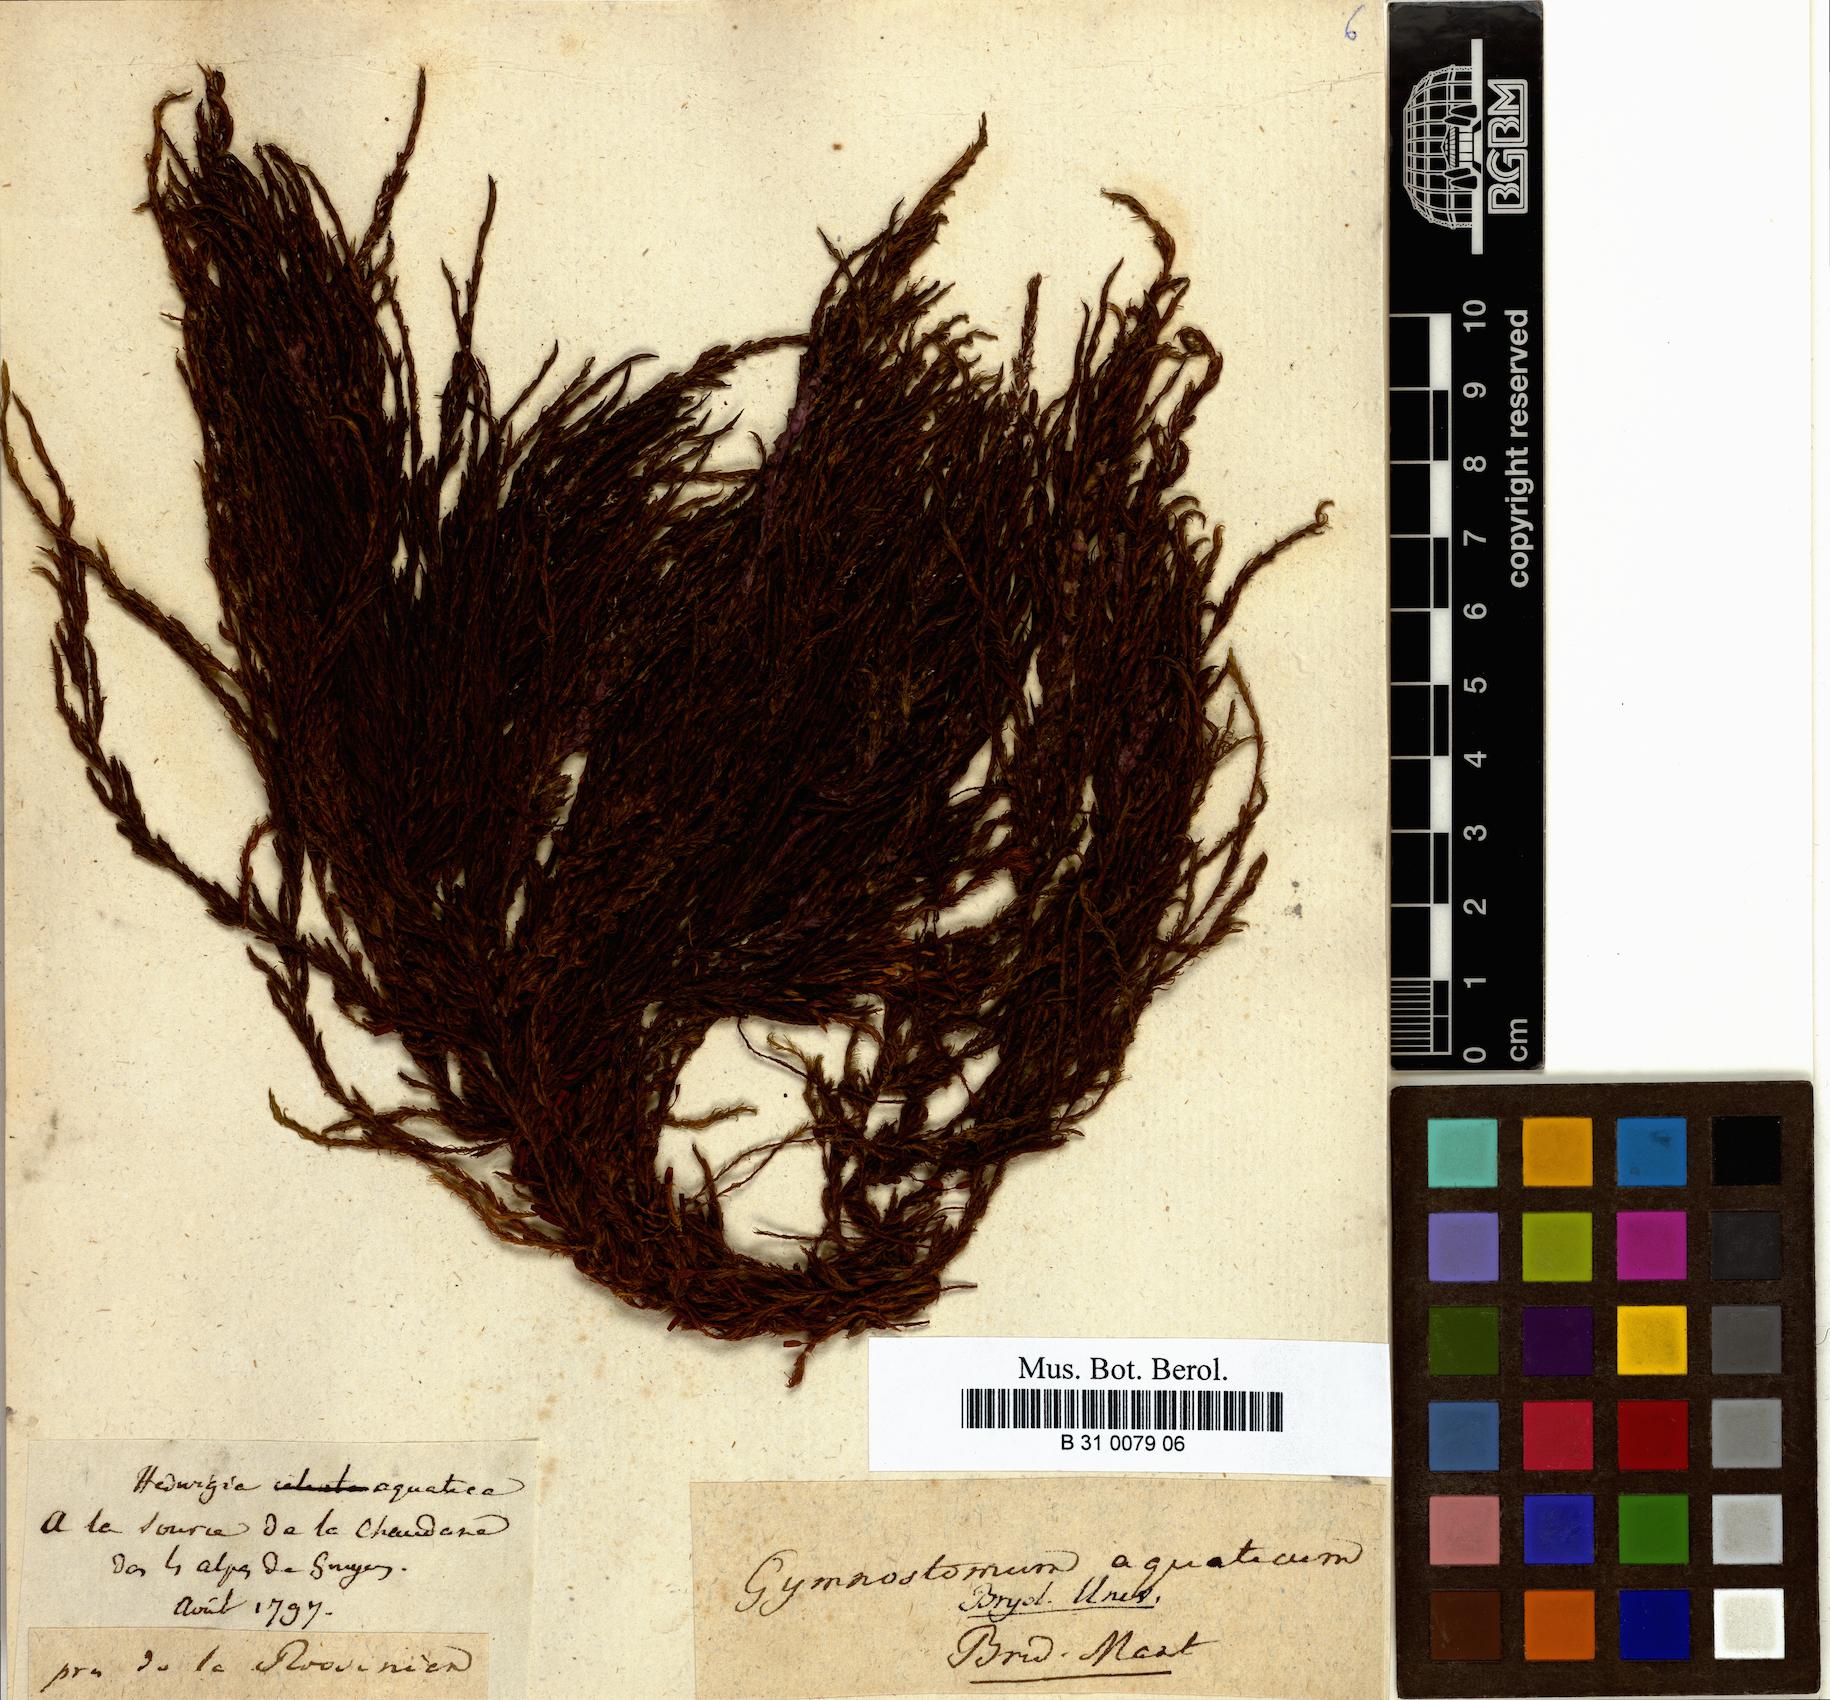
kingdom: Plantae
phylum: Bryophyta
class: Bryopsida
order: Pottiales
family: Pottiaceae
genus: Cinclidotus
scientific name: Cinclidotus aquaticus
